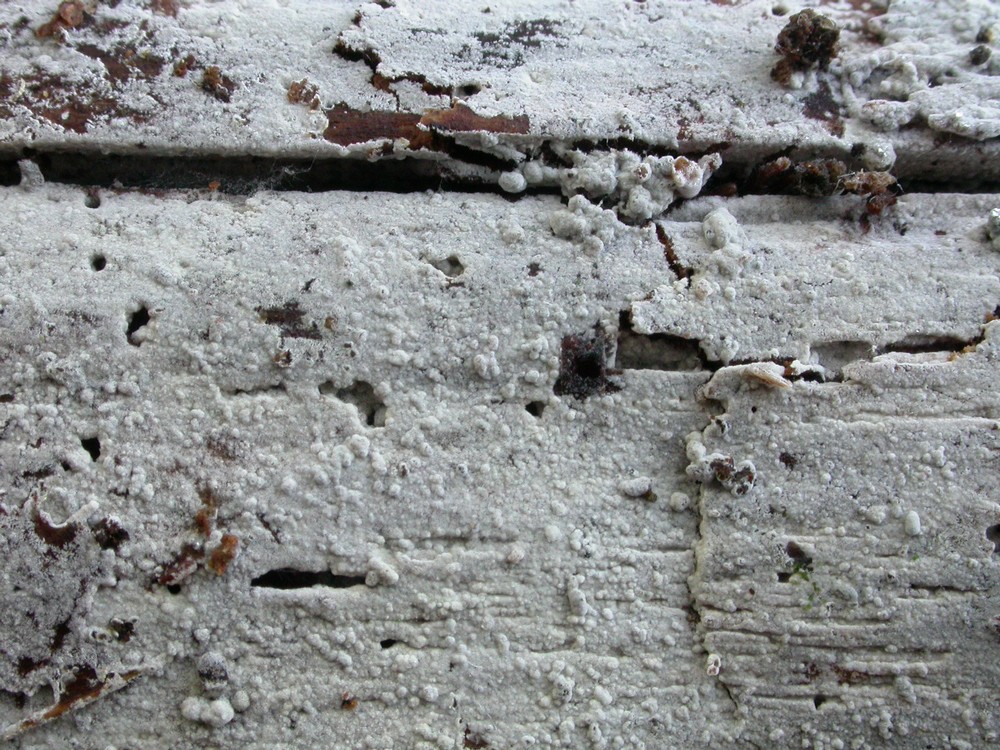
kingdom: Fungi
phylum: Basidiomycota
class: Agaricomycetes
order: Atheliales
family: Atheliaceae
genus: Piloderma
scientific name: Piloderma sphaerosporum
